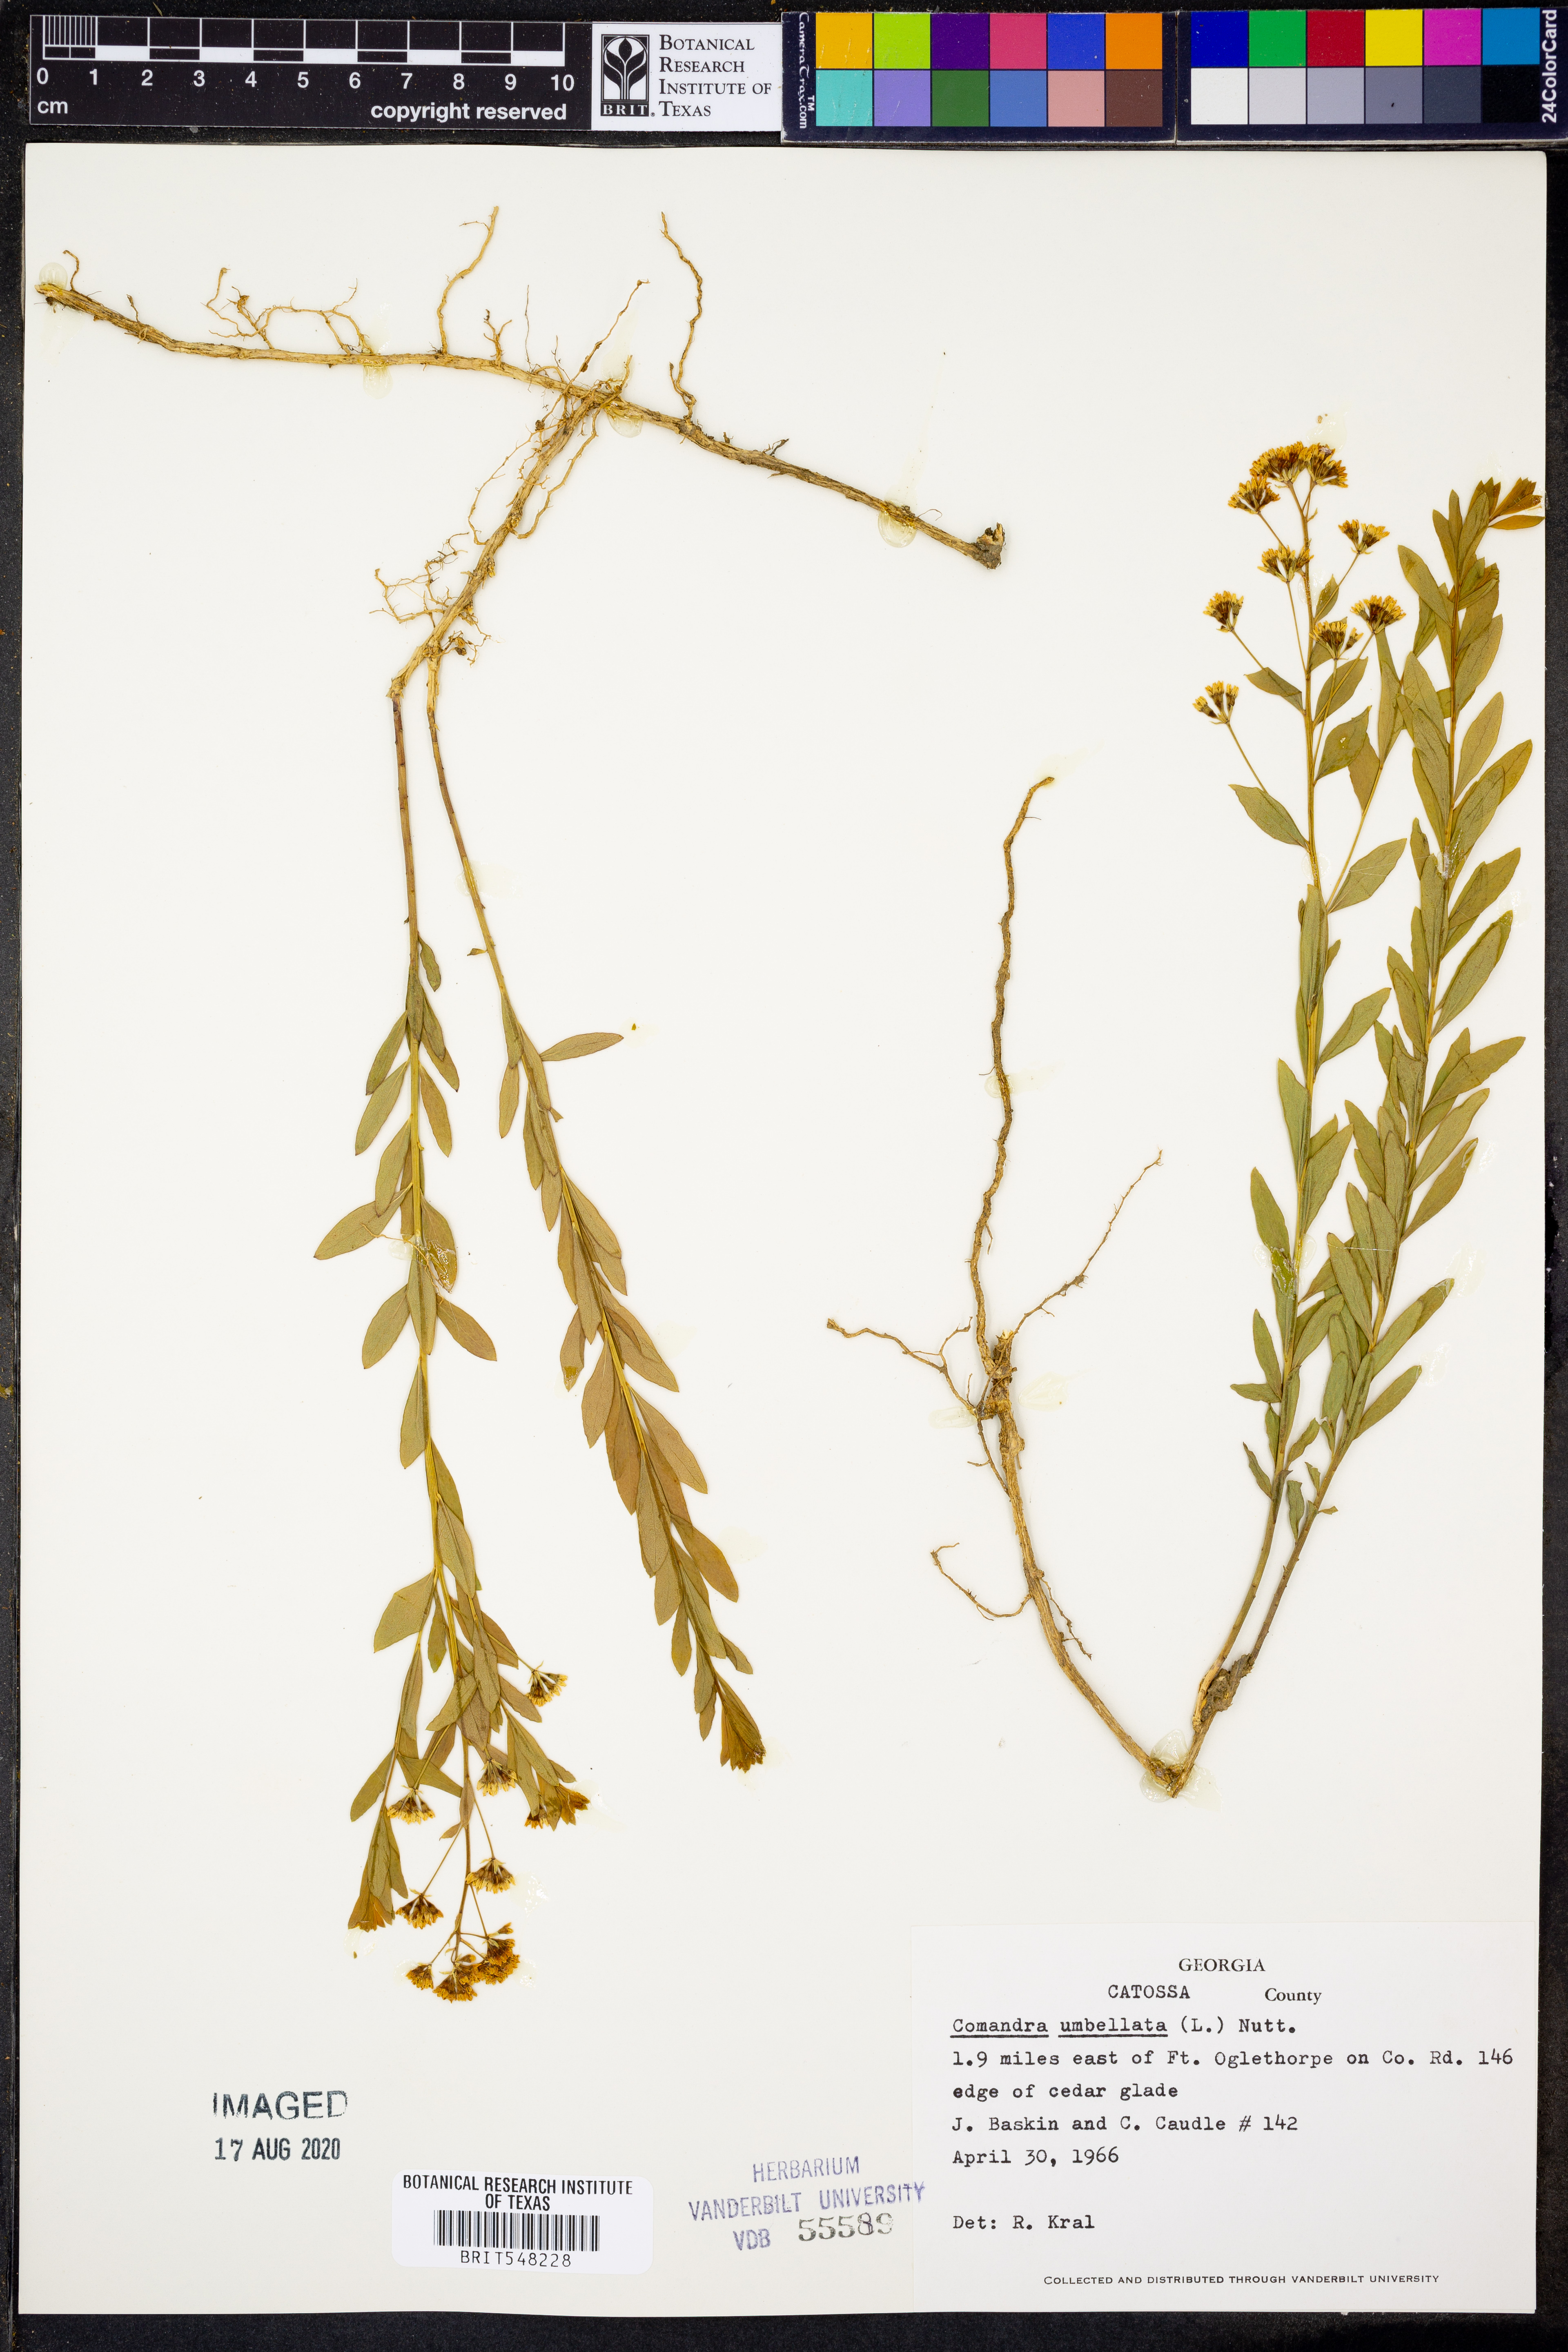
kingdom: Plantae
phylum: Tracheophyta
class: Magnoliopsida
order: Santalales
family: Comandraceae
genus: Comandra
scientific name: Comandra umbellata
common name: Bastard toadflax
